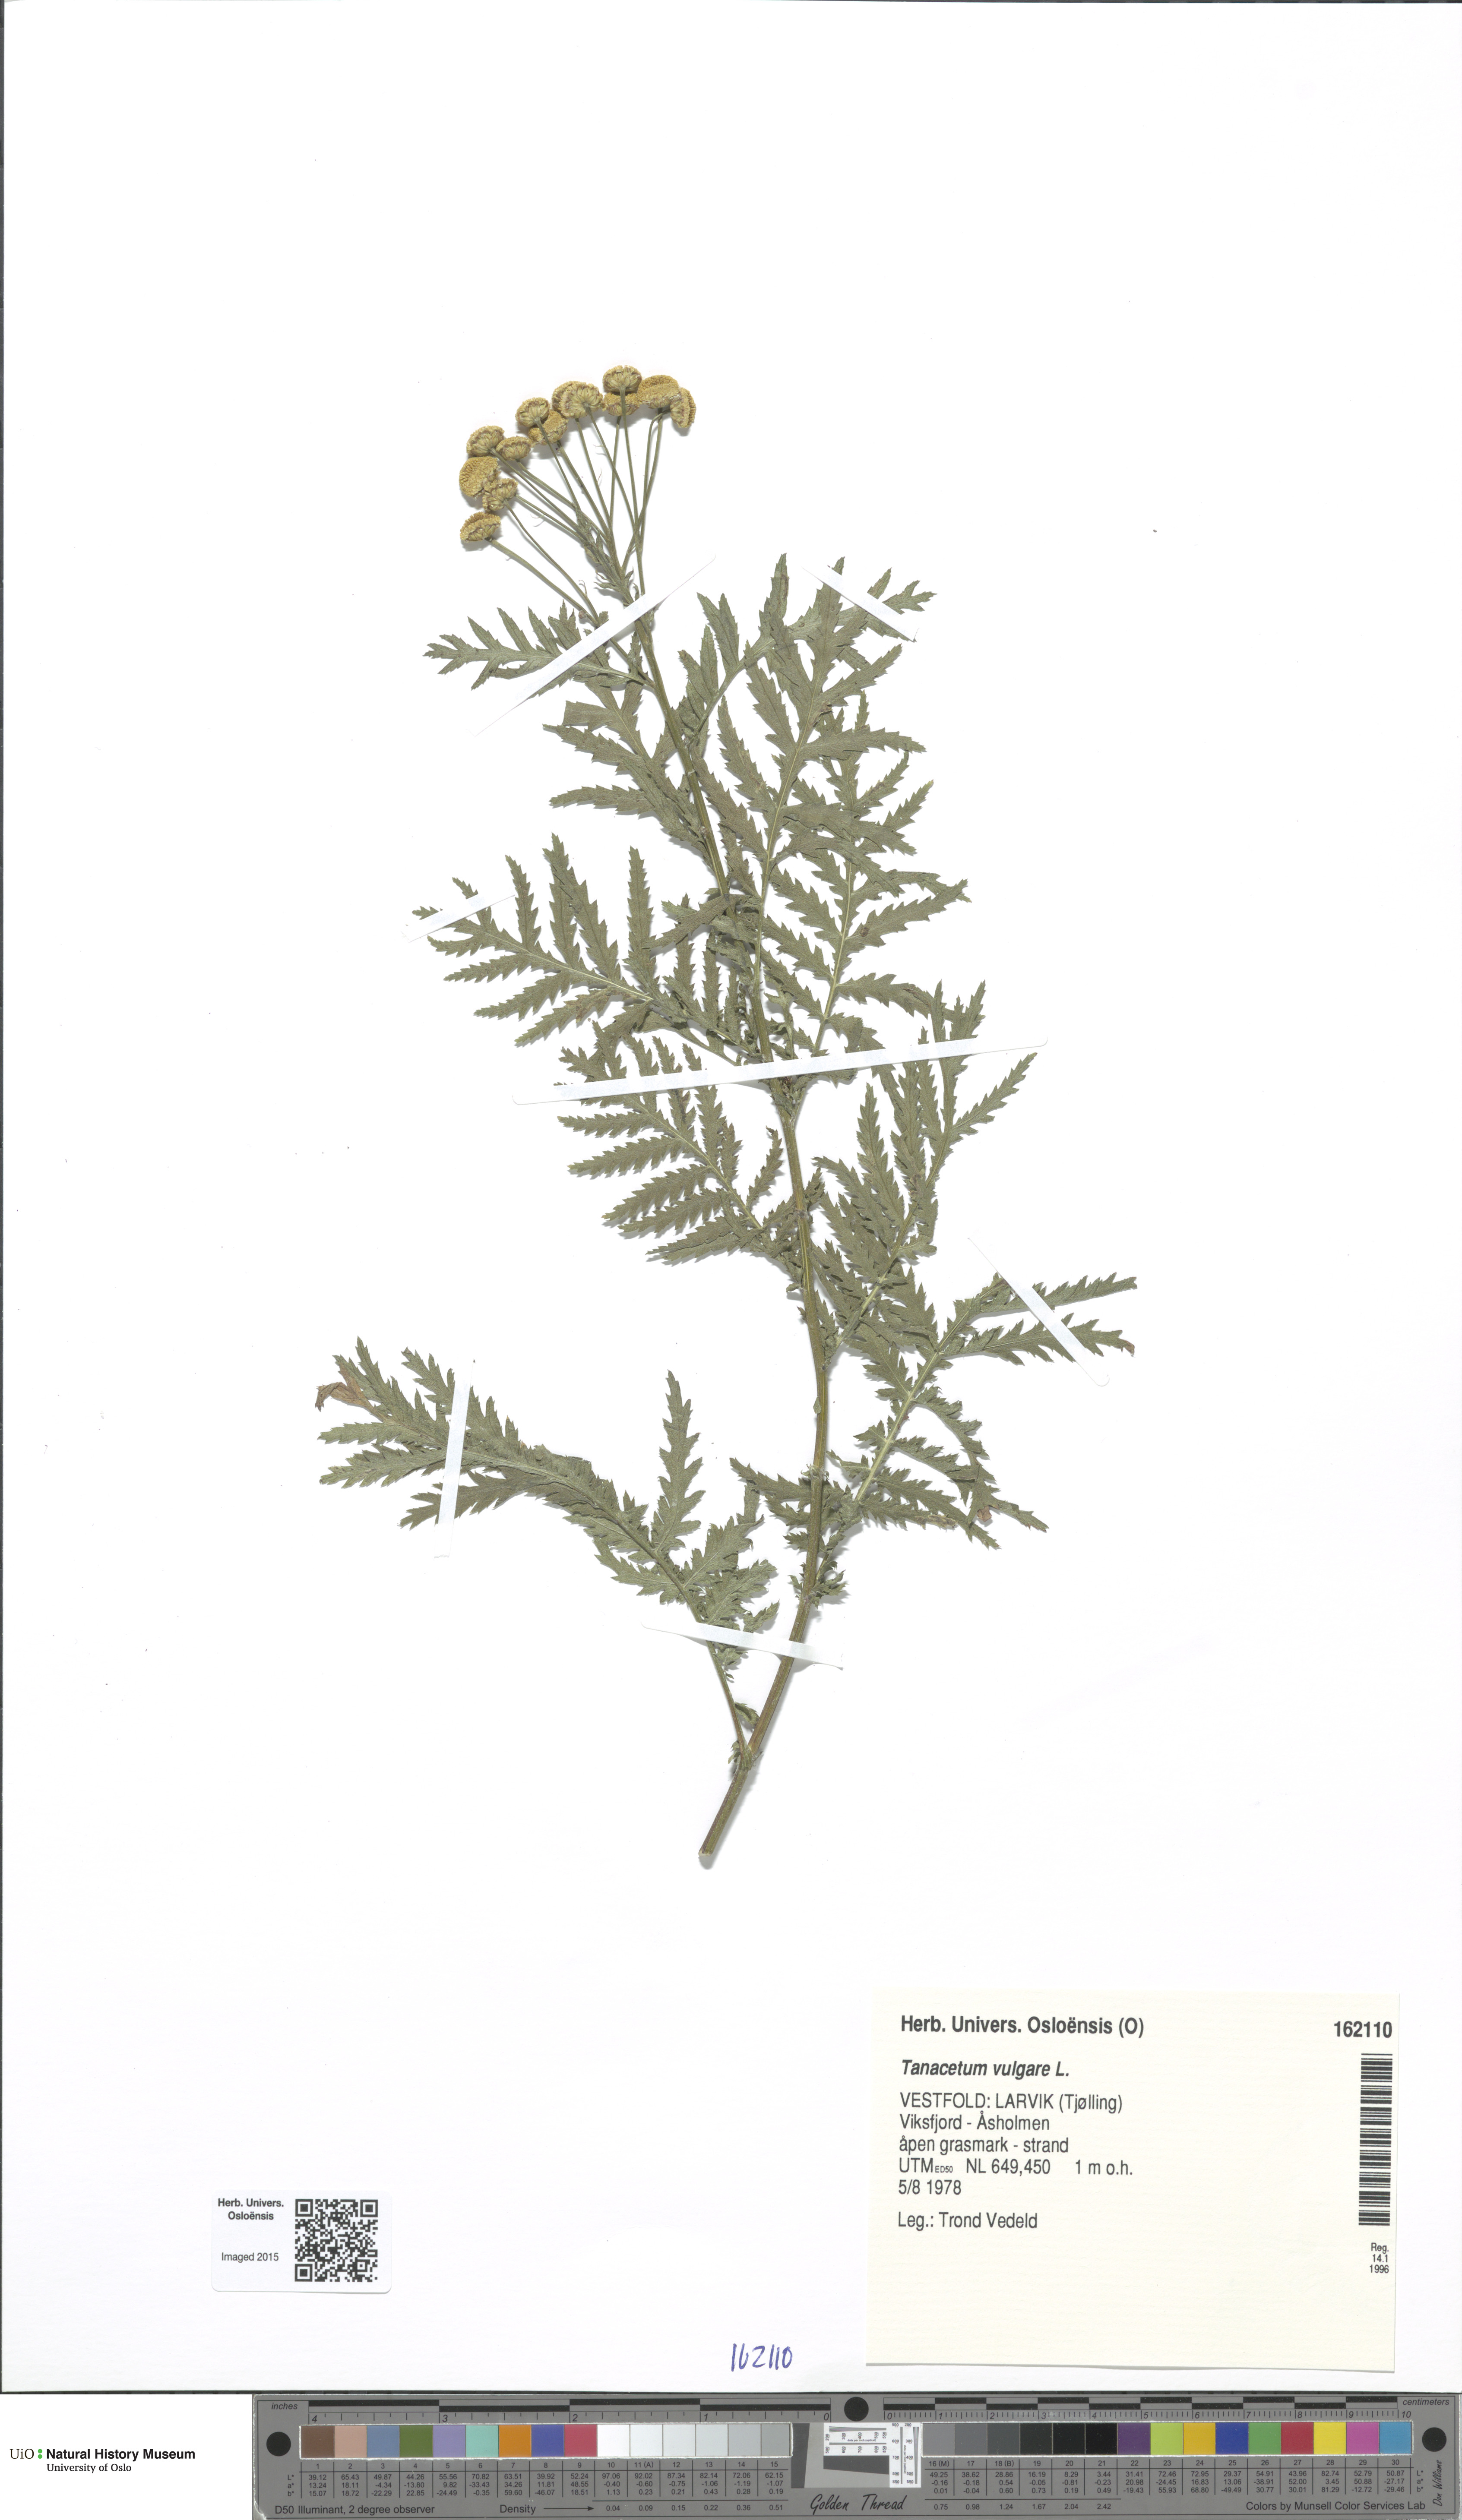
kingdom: Plantae
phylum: Tracheophyta
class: Magnoliopsida
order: Asterales
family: Asteraceae
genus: Tanacetum
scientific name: Tanacetum vulgare
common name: Common tansy
